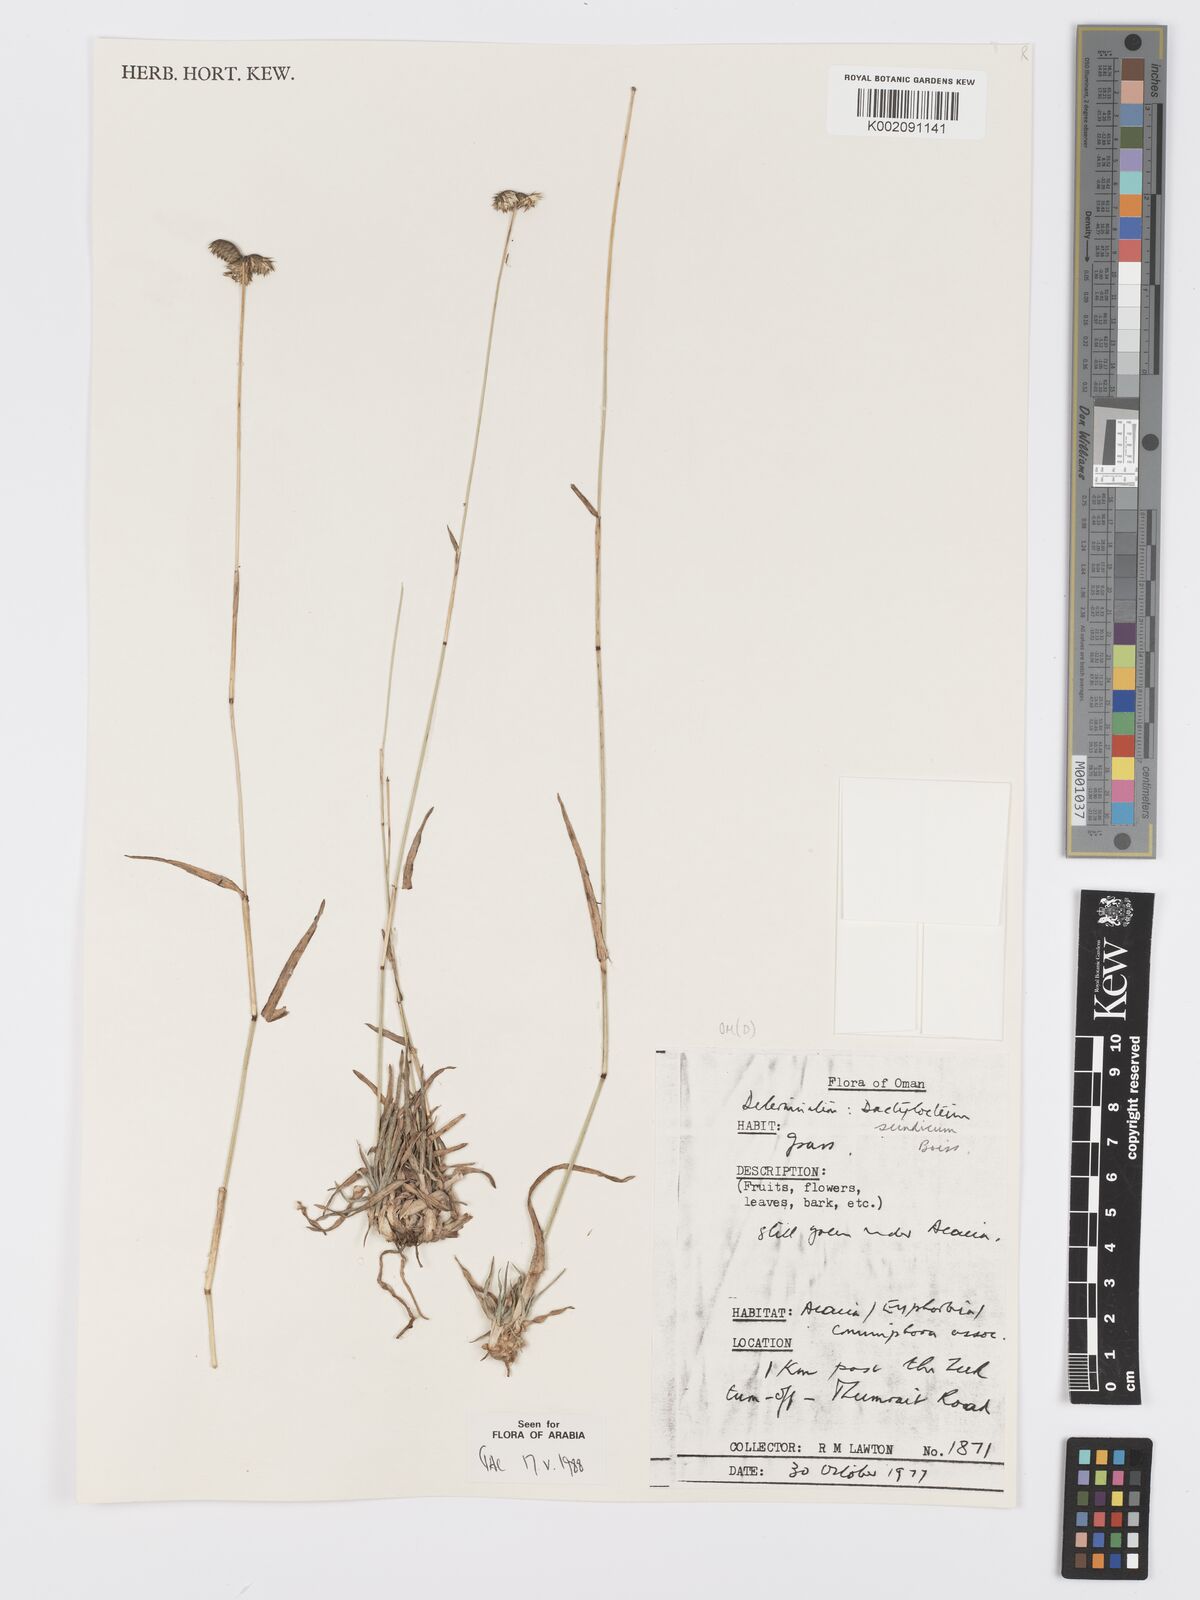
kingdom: Plantae
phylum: Tracheophyta
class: Liliopsida
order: Poales
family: Poaceae
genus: Dactyloctenium
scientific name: Dactyloctenium scindicum
